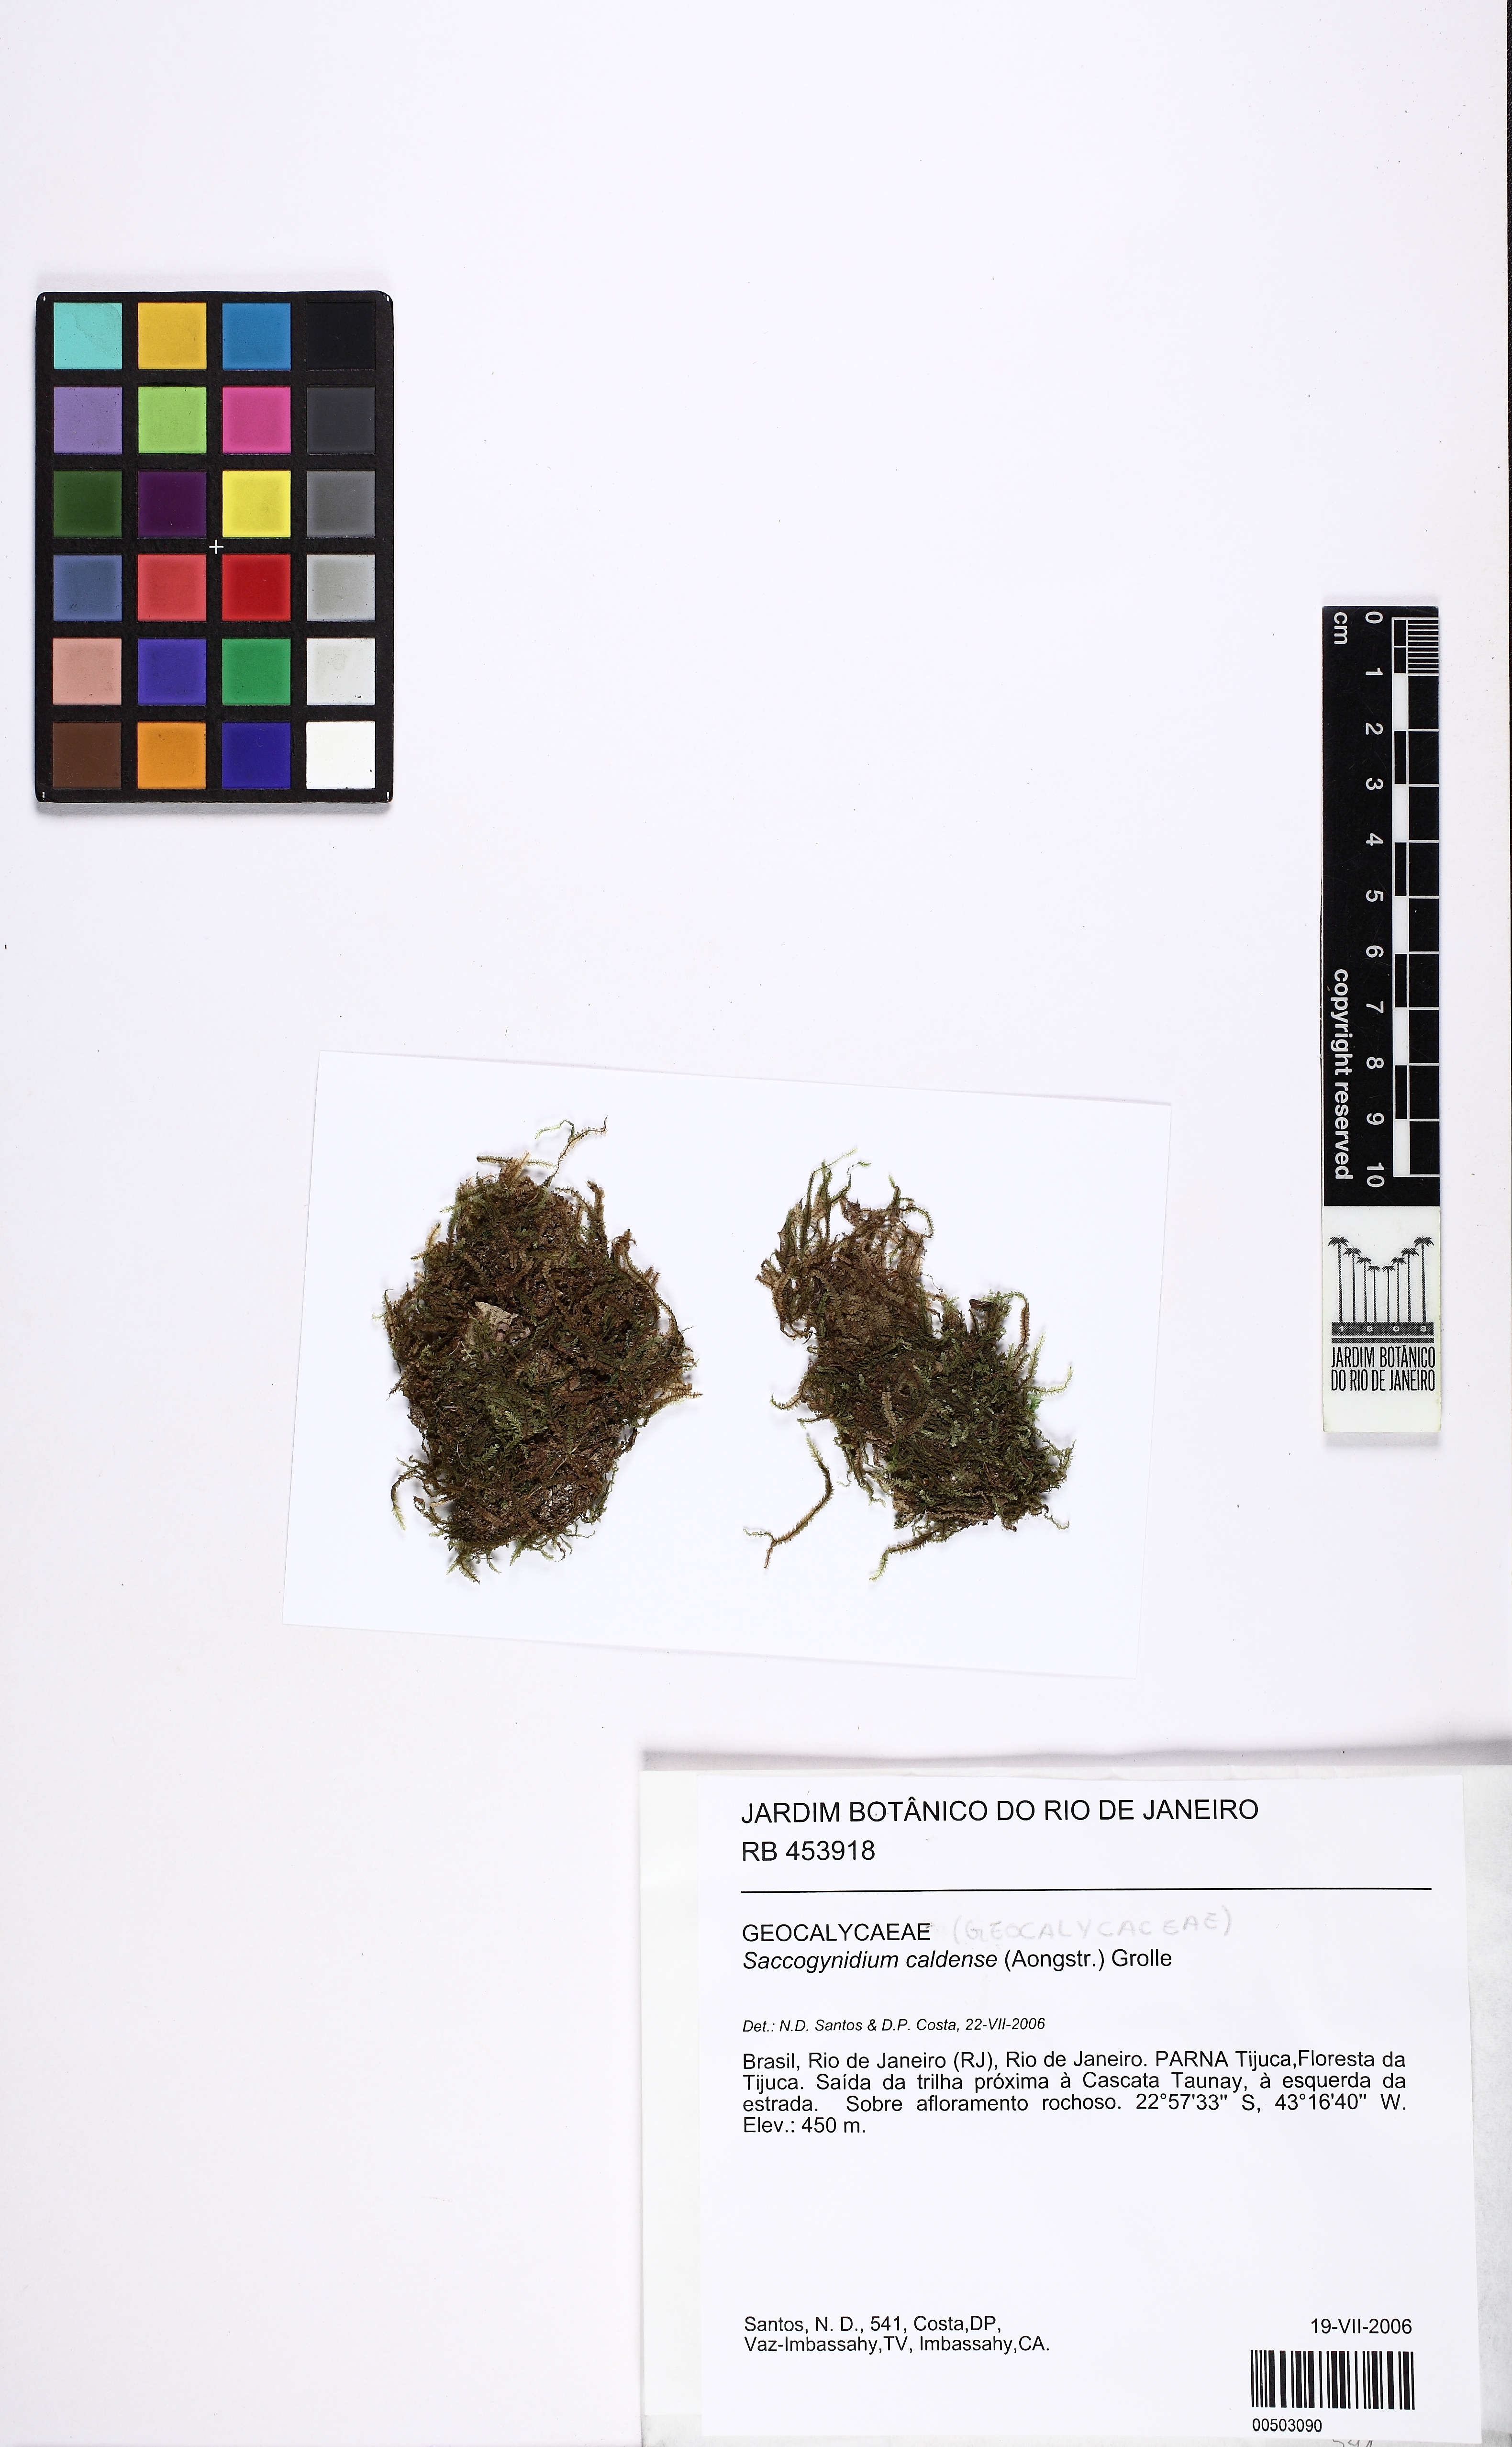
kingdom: Plantae
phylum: Marchantiophyta
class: Jungermanniopsida
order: Jungermanniales
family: Acrobolbaceae
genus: Saccogynidium
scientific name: Saccogynidium caldense
